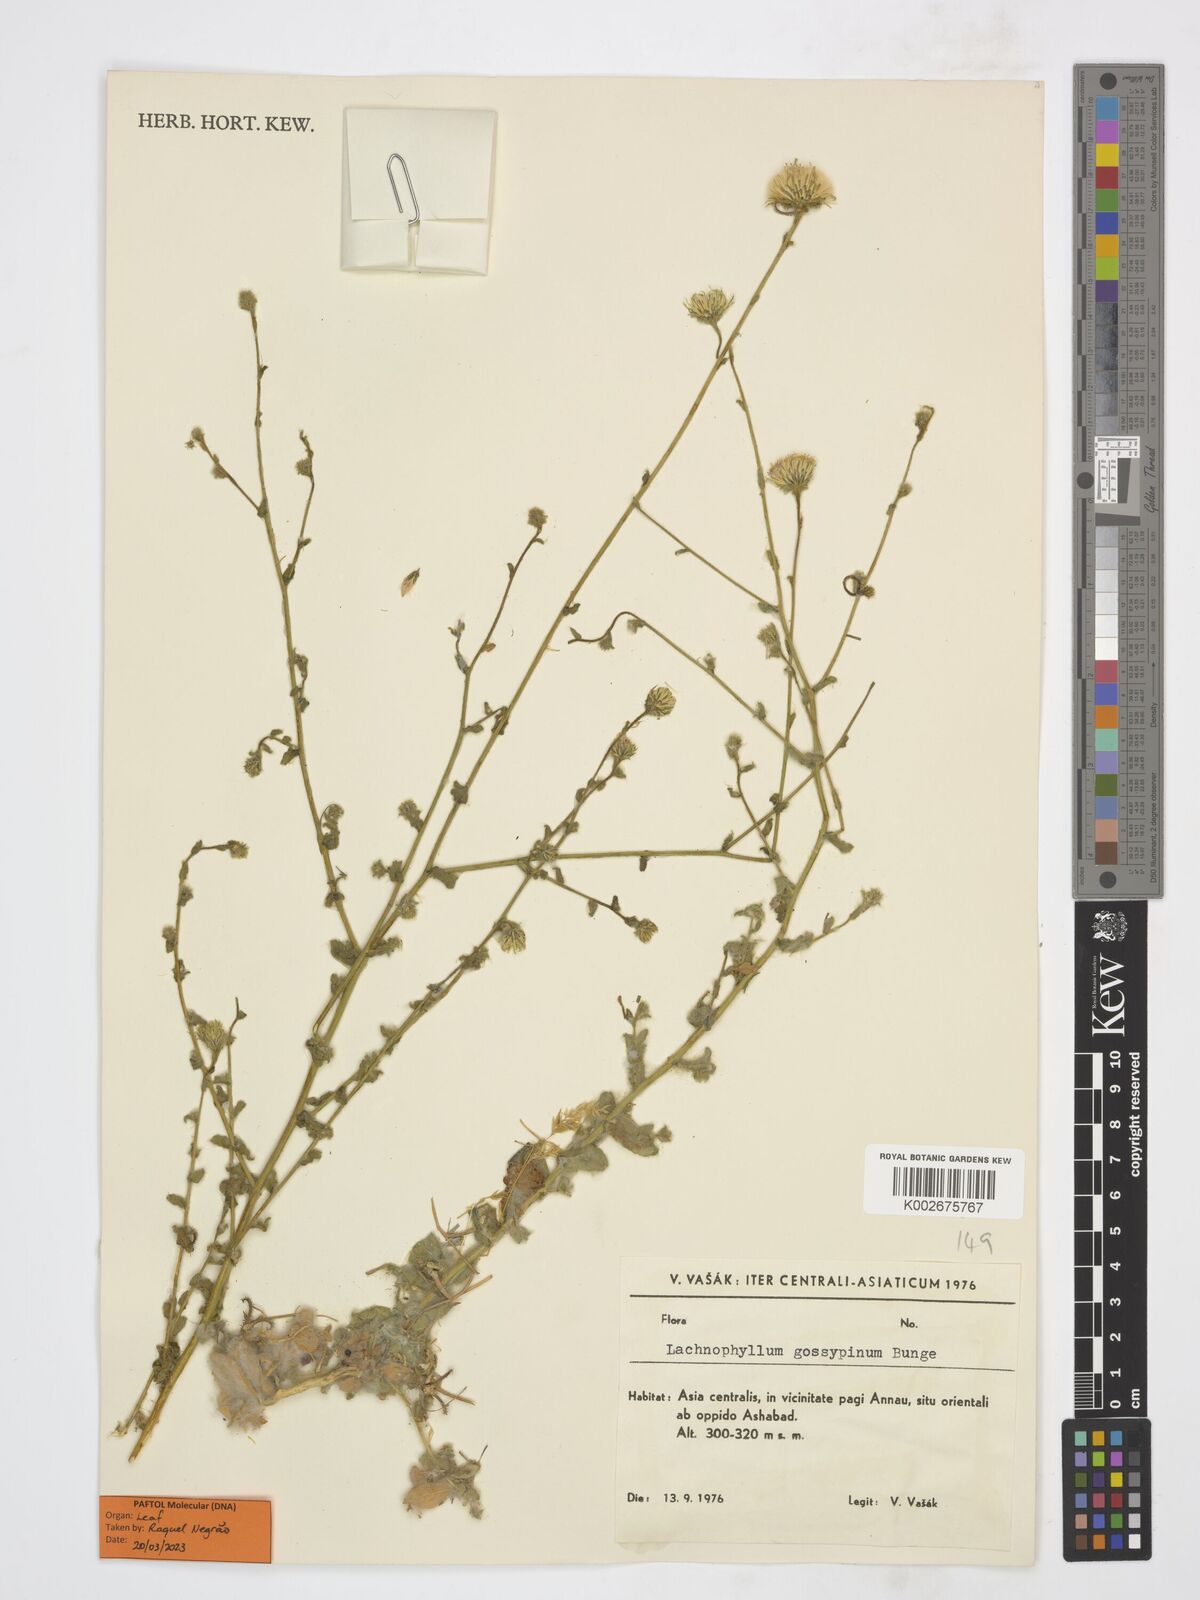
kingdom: Plantae
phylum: Tracheophyta
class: Magnoliopsida
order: Asterales
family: Asteraceae
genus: Lachnophyllum
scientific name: Lachnophyllum gossypium
